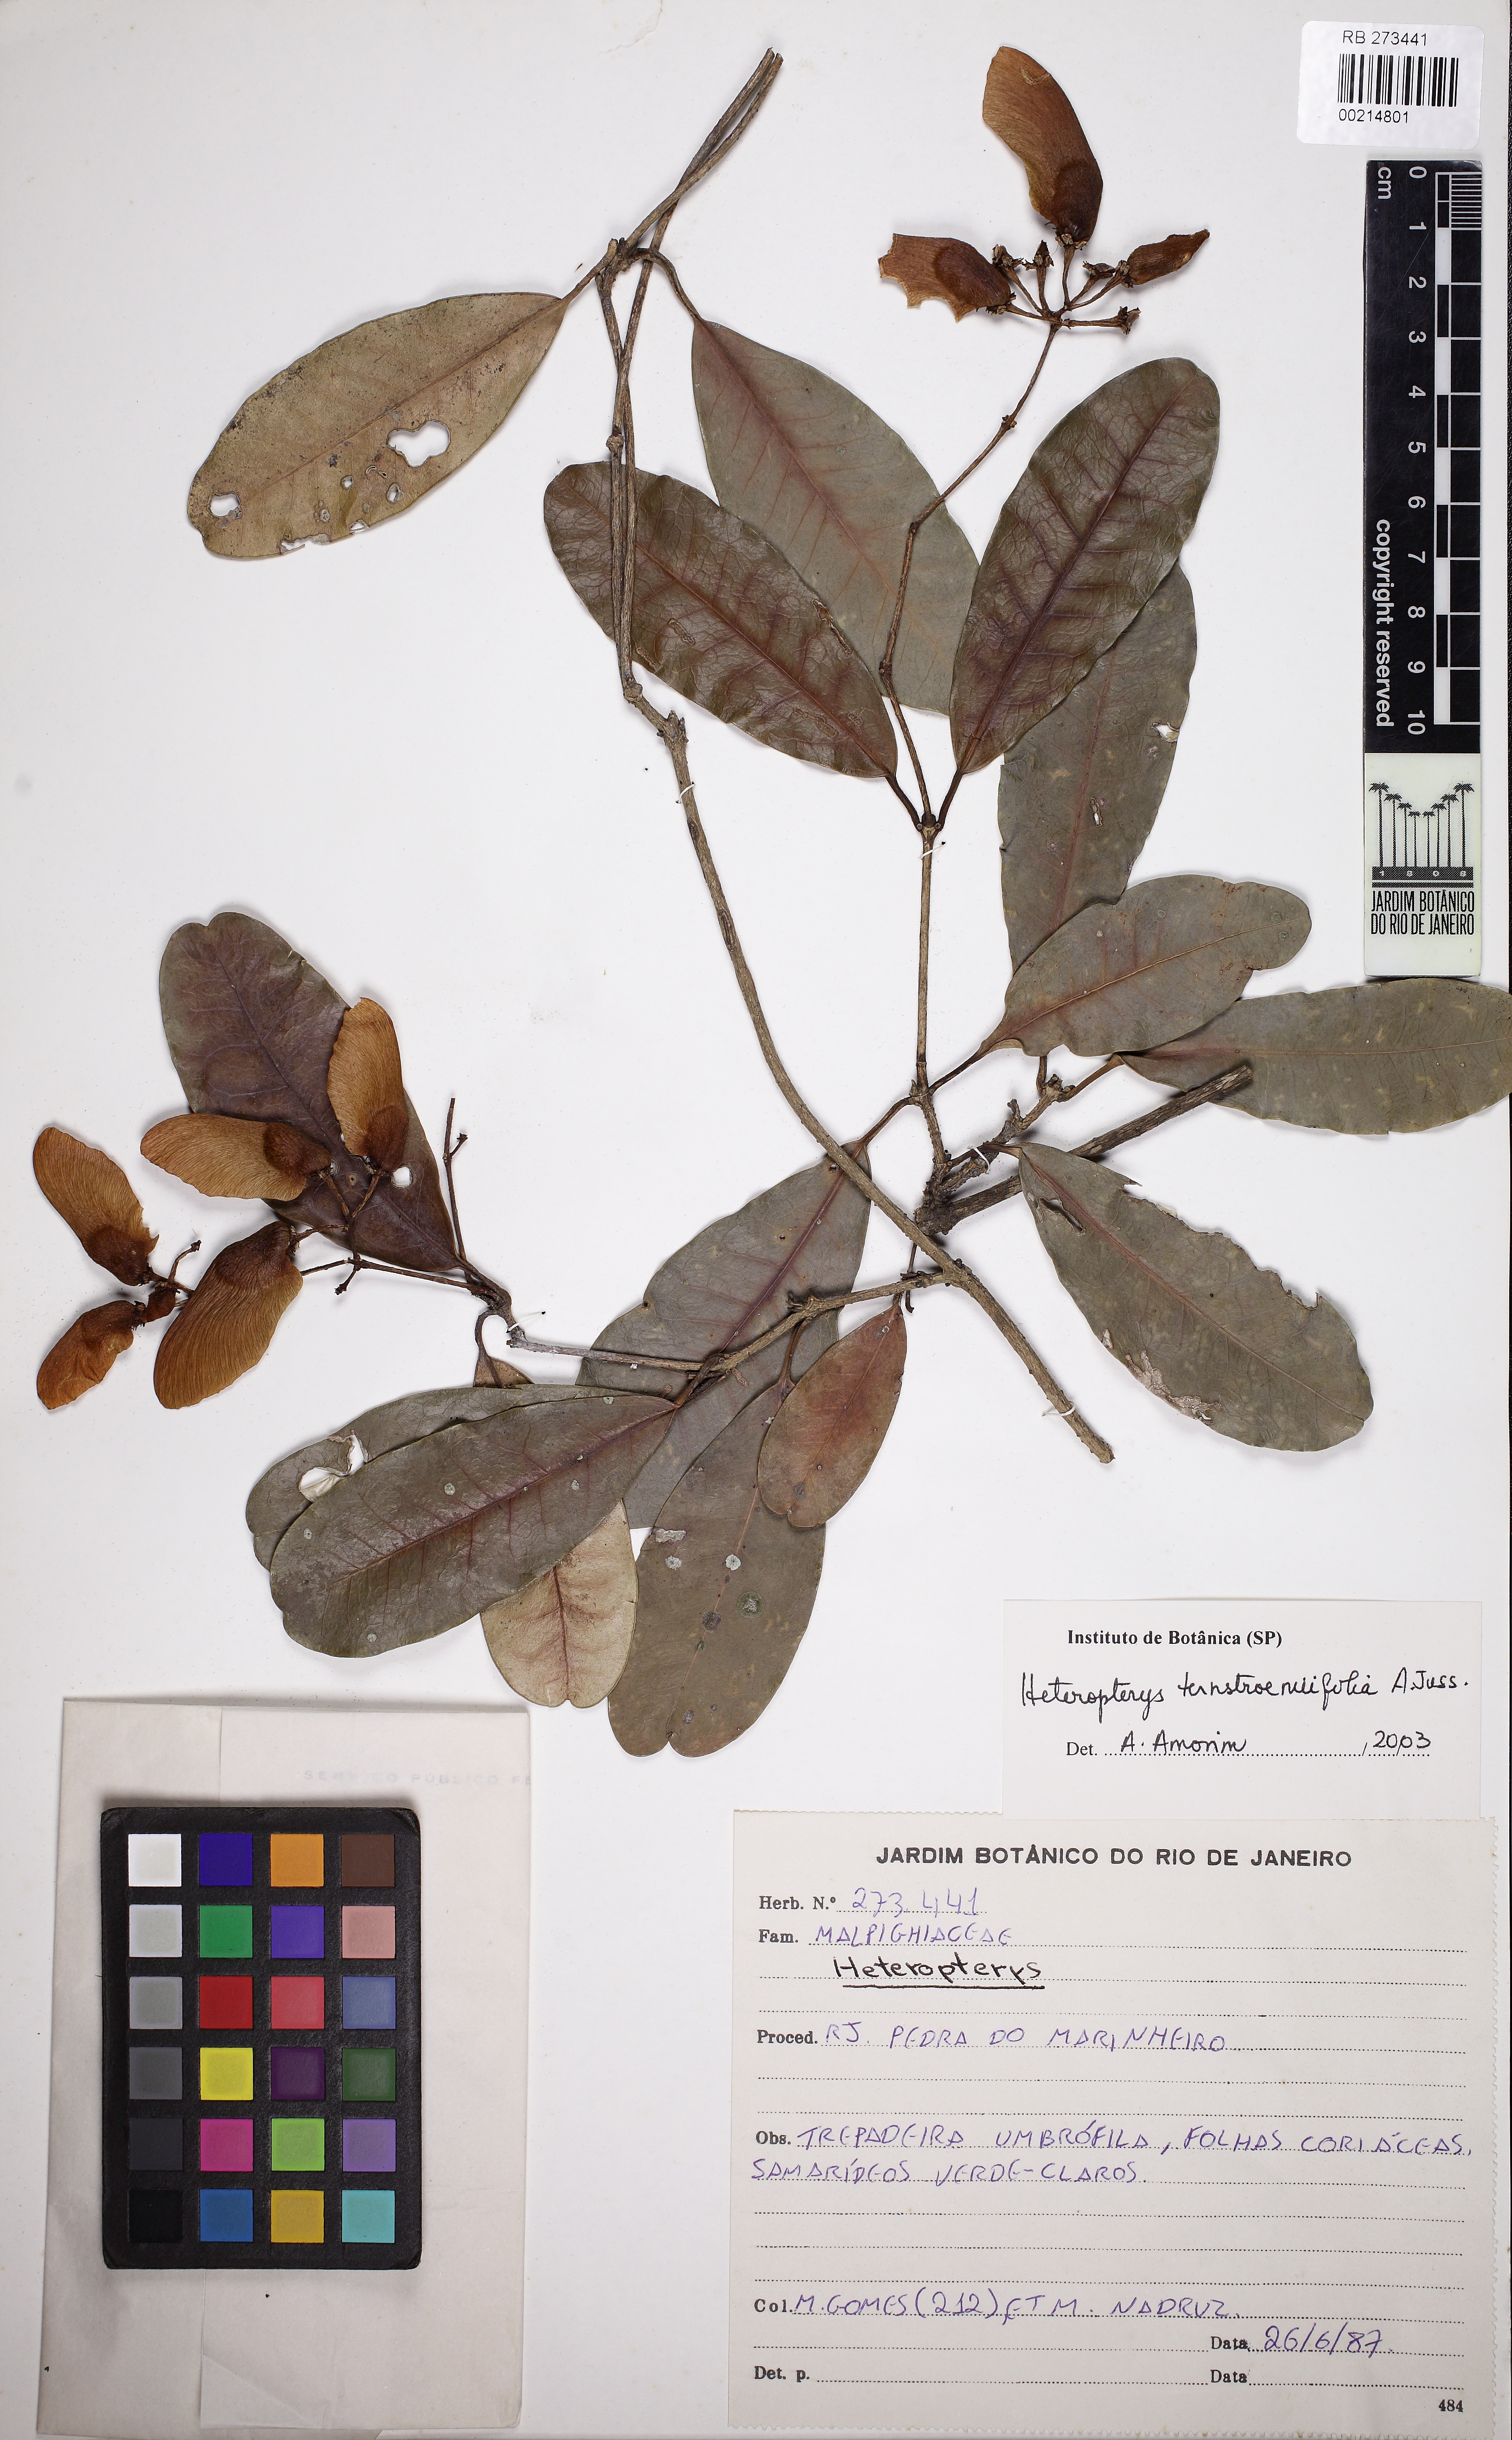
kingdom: Plantae
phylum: Tracheophyta
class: Magnoliopsida
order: Malpighiales
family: Malpighiaceae
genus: Heteropterys
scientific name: Heteropterys ternstroemiifolia
